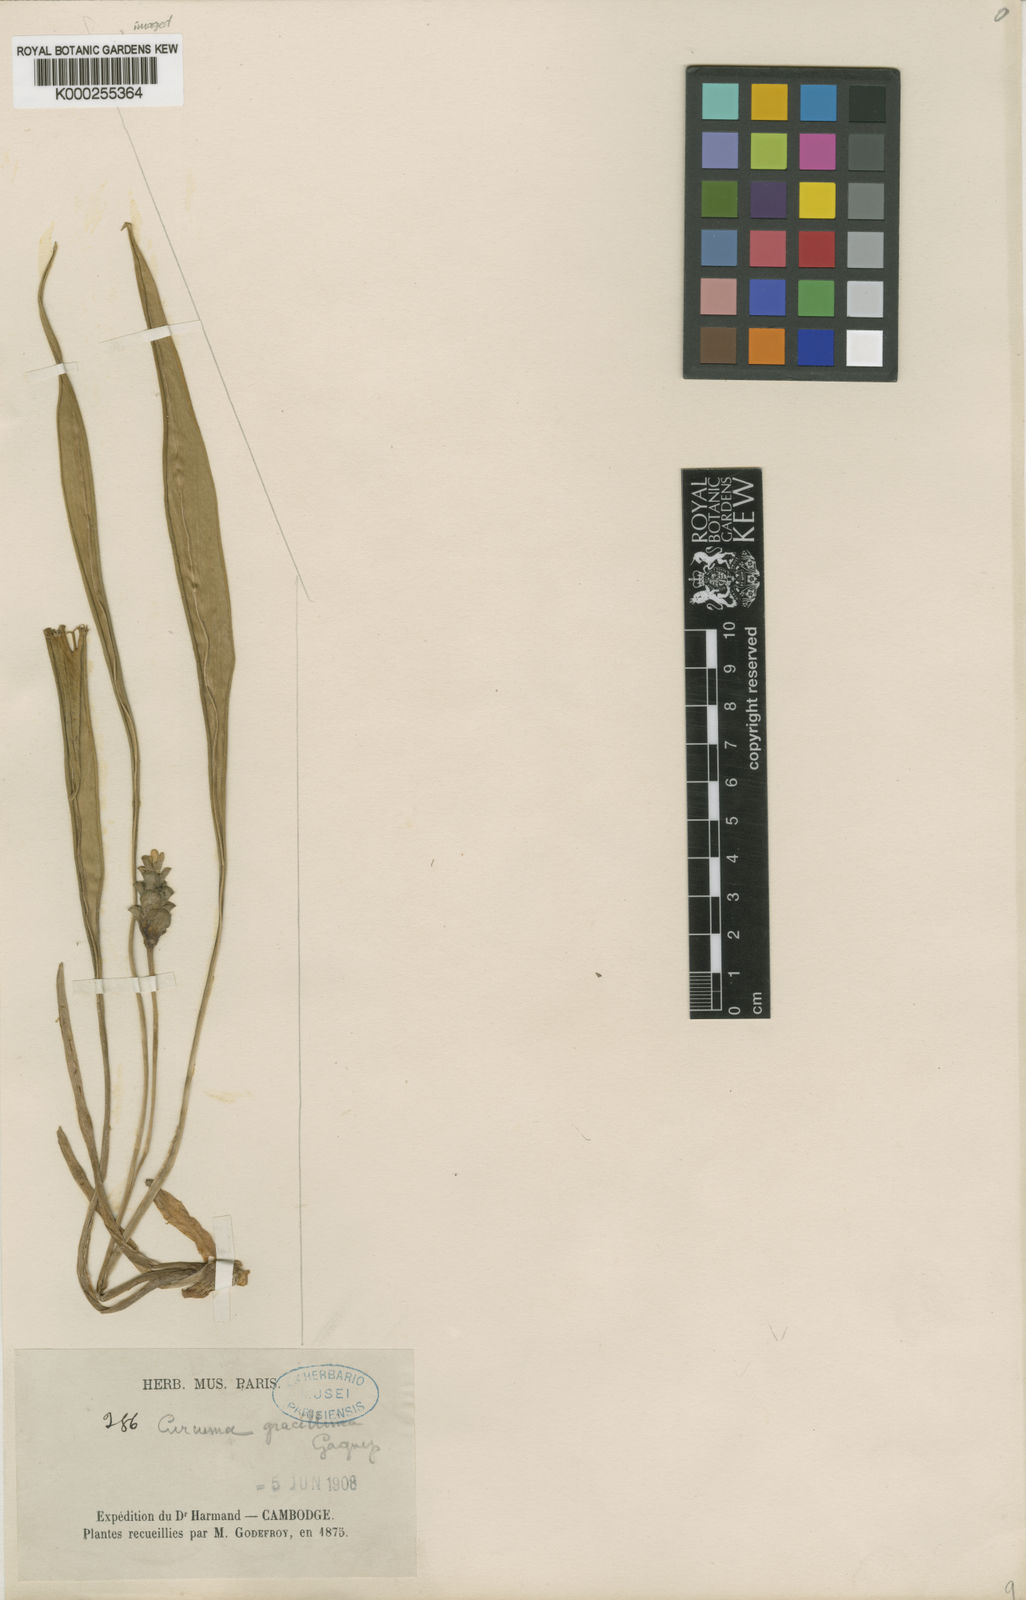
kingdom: Plantae
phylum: Tracheophyta
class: Liliopsida
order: Zingiberales
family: Zingiberaceae
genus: Curcuma
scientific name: Curcuma gracillima
